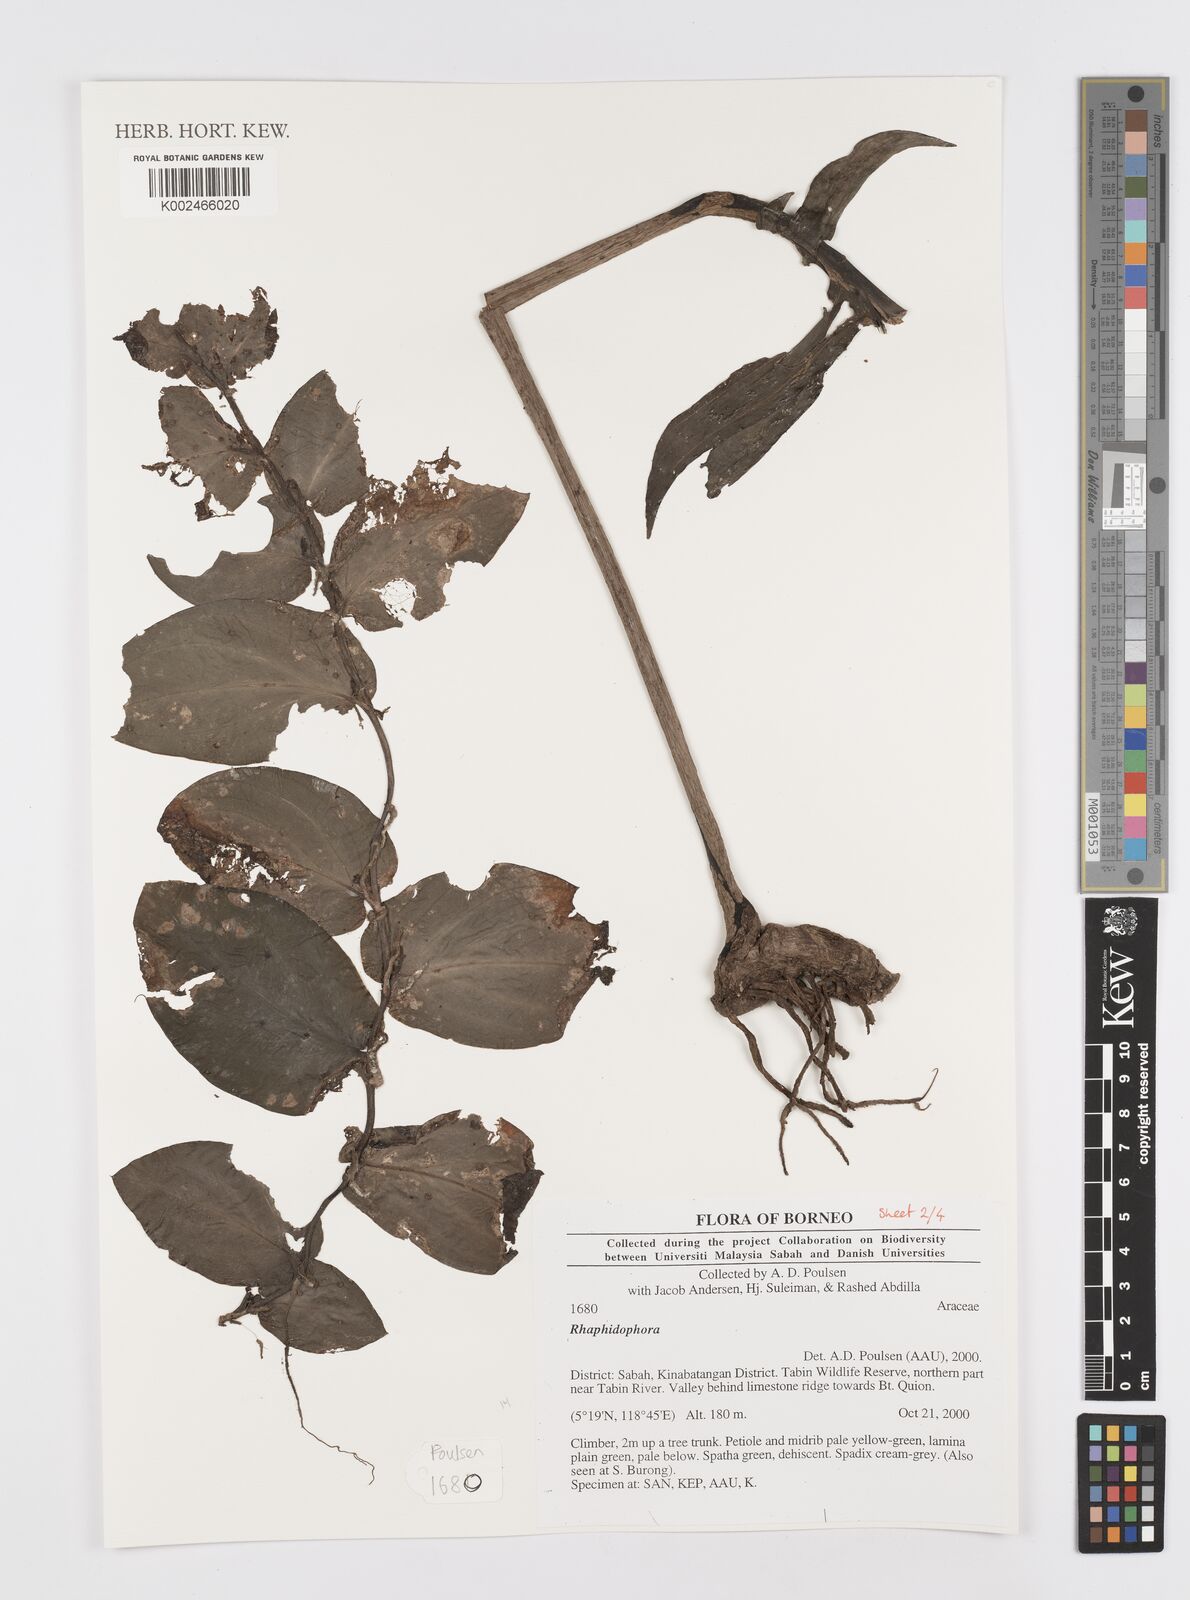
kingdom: Plantae
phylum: Tracheophyta
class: Liliopsida
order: Alismatales
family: Araceae
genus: Rhaphidophora
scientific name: Rhaphidophora
